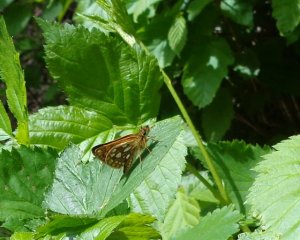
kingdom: Animalia
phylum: Arthropoda
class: Insecta
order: Lepidoptera
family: Hesperiidae
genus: Carterocephalus
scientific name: Carterocephalus palaemon
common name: Chequered Skipper
